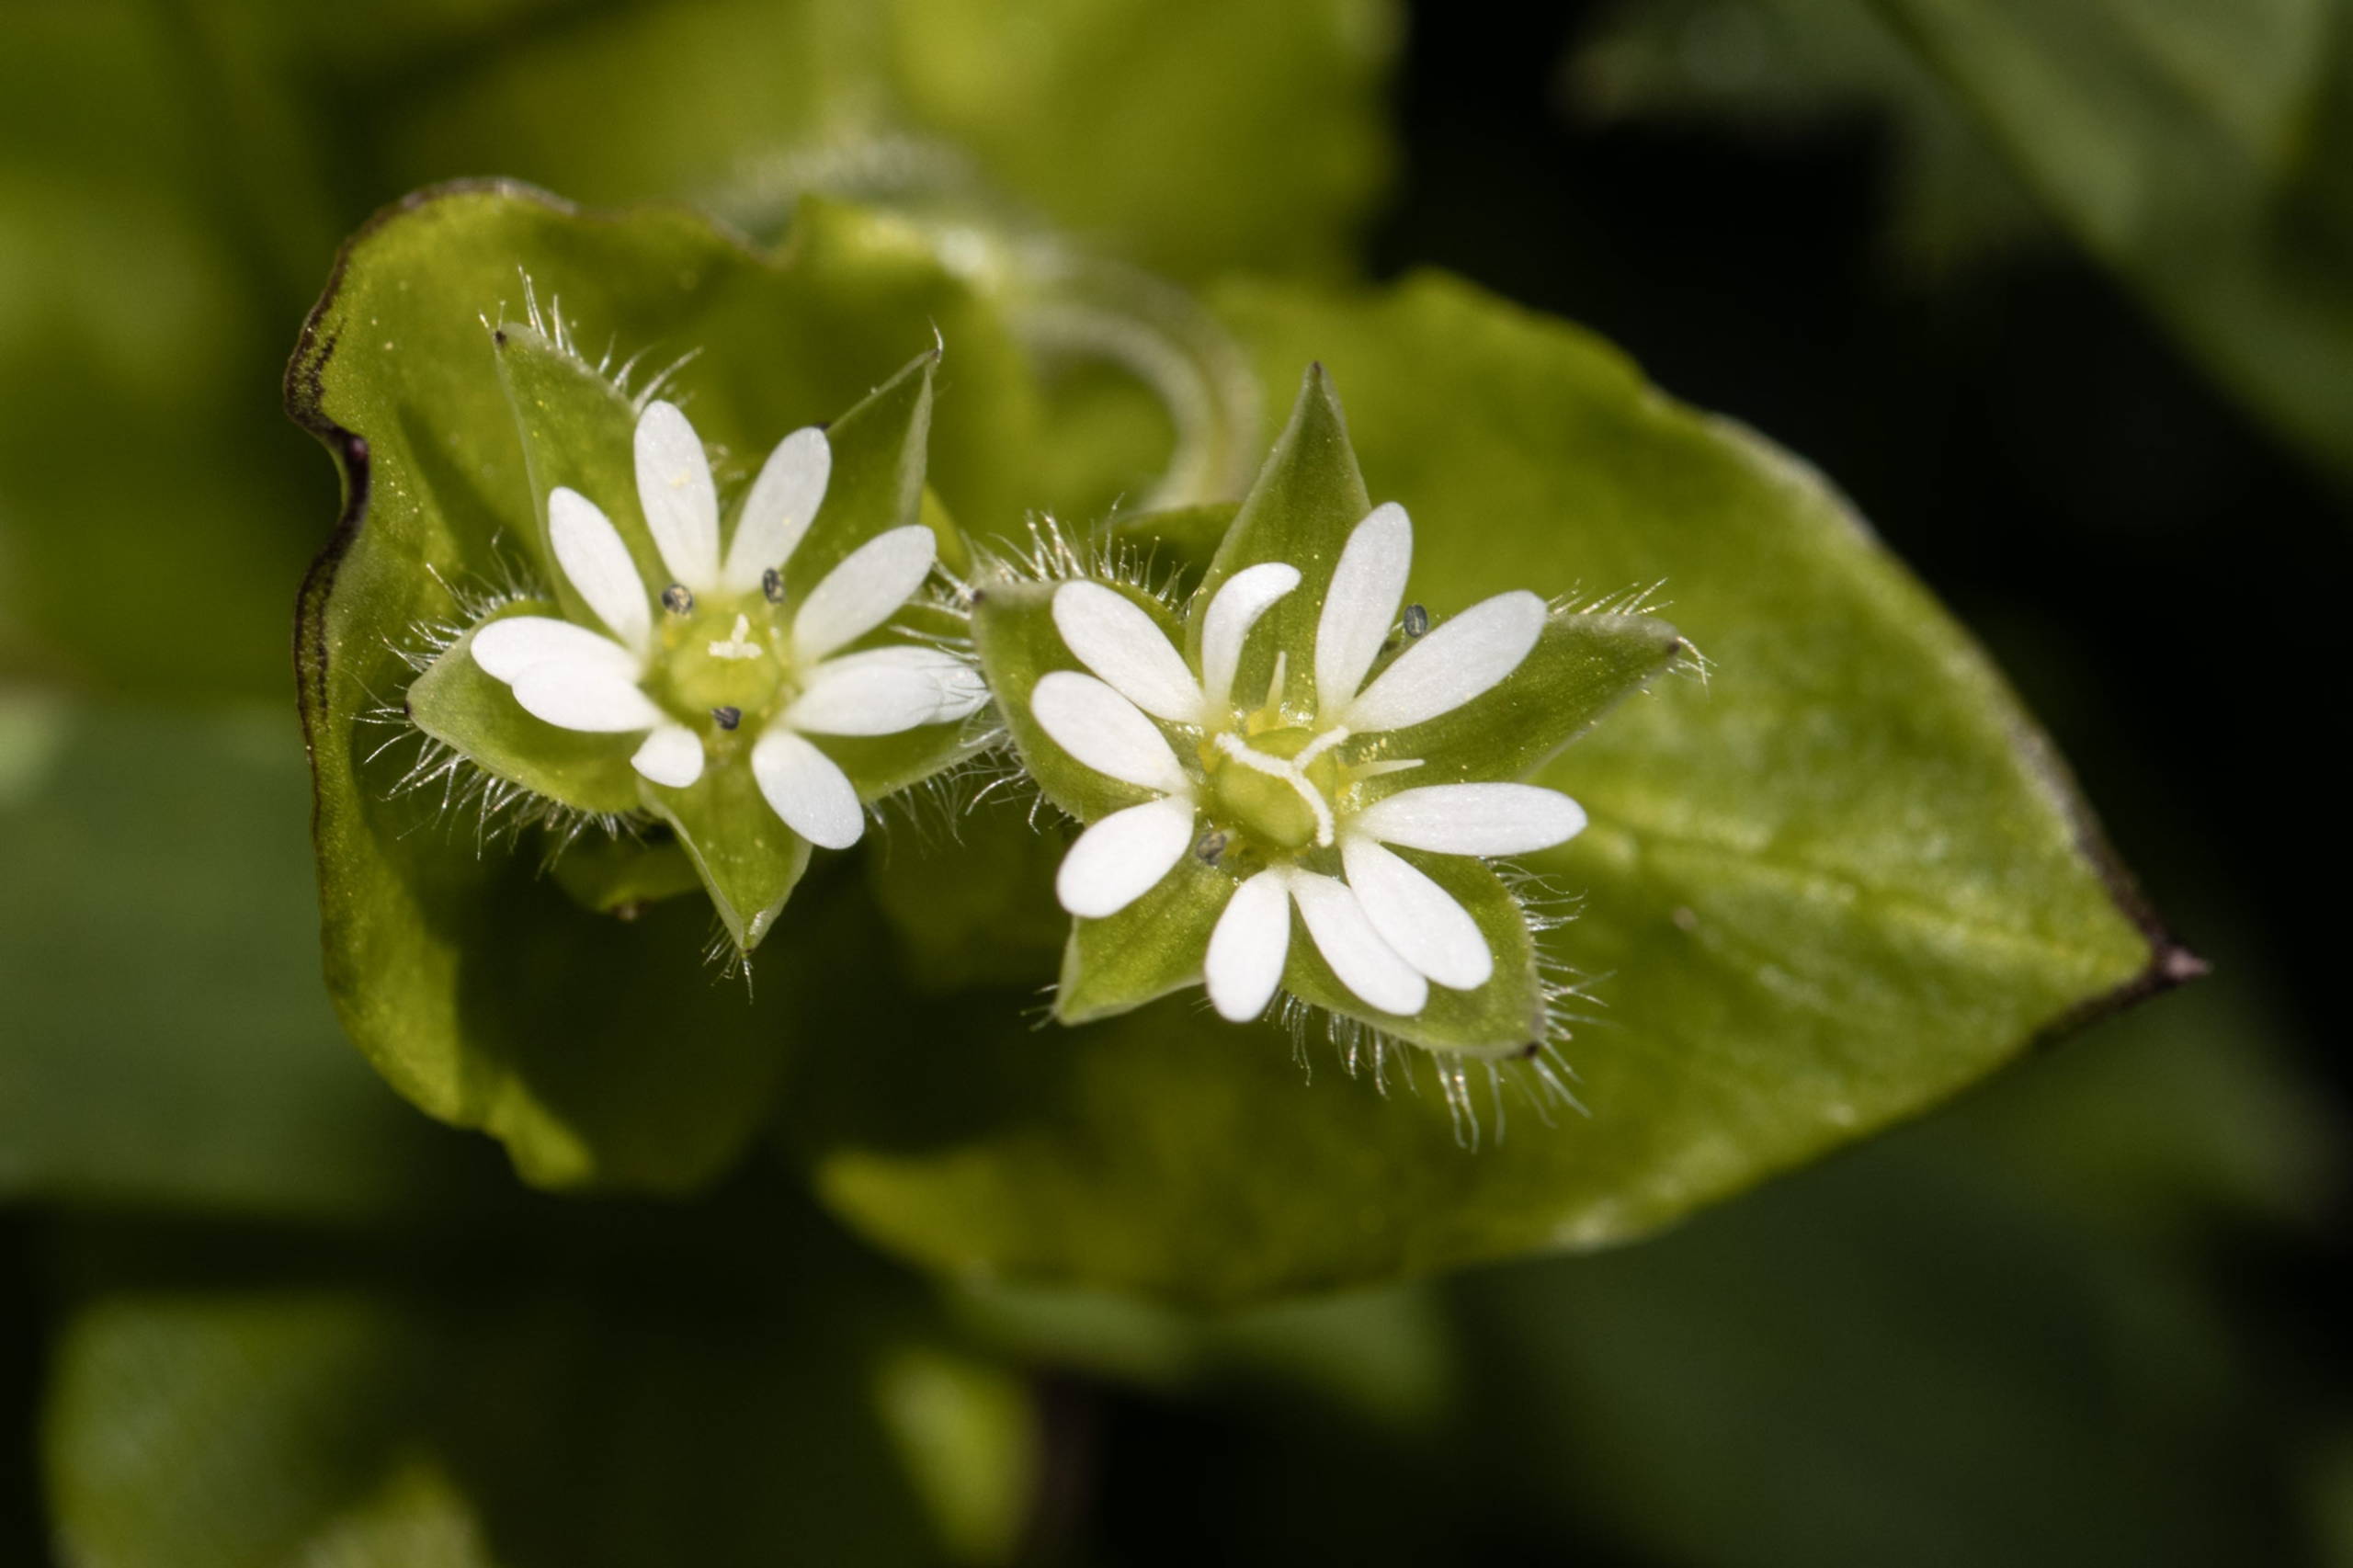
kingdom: Plantae
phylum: Tracheophyta
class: Magnoliopsida
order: Caryophyllales
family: Caryophyllaceae
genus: Stellaria
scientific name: Stellaria media
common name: Almindelig fuglegræs
